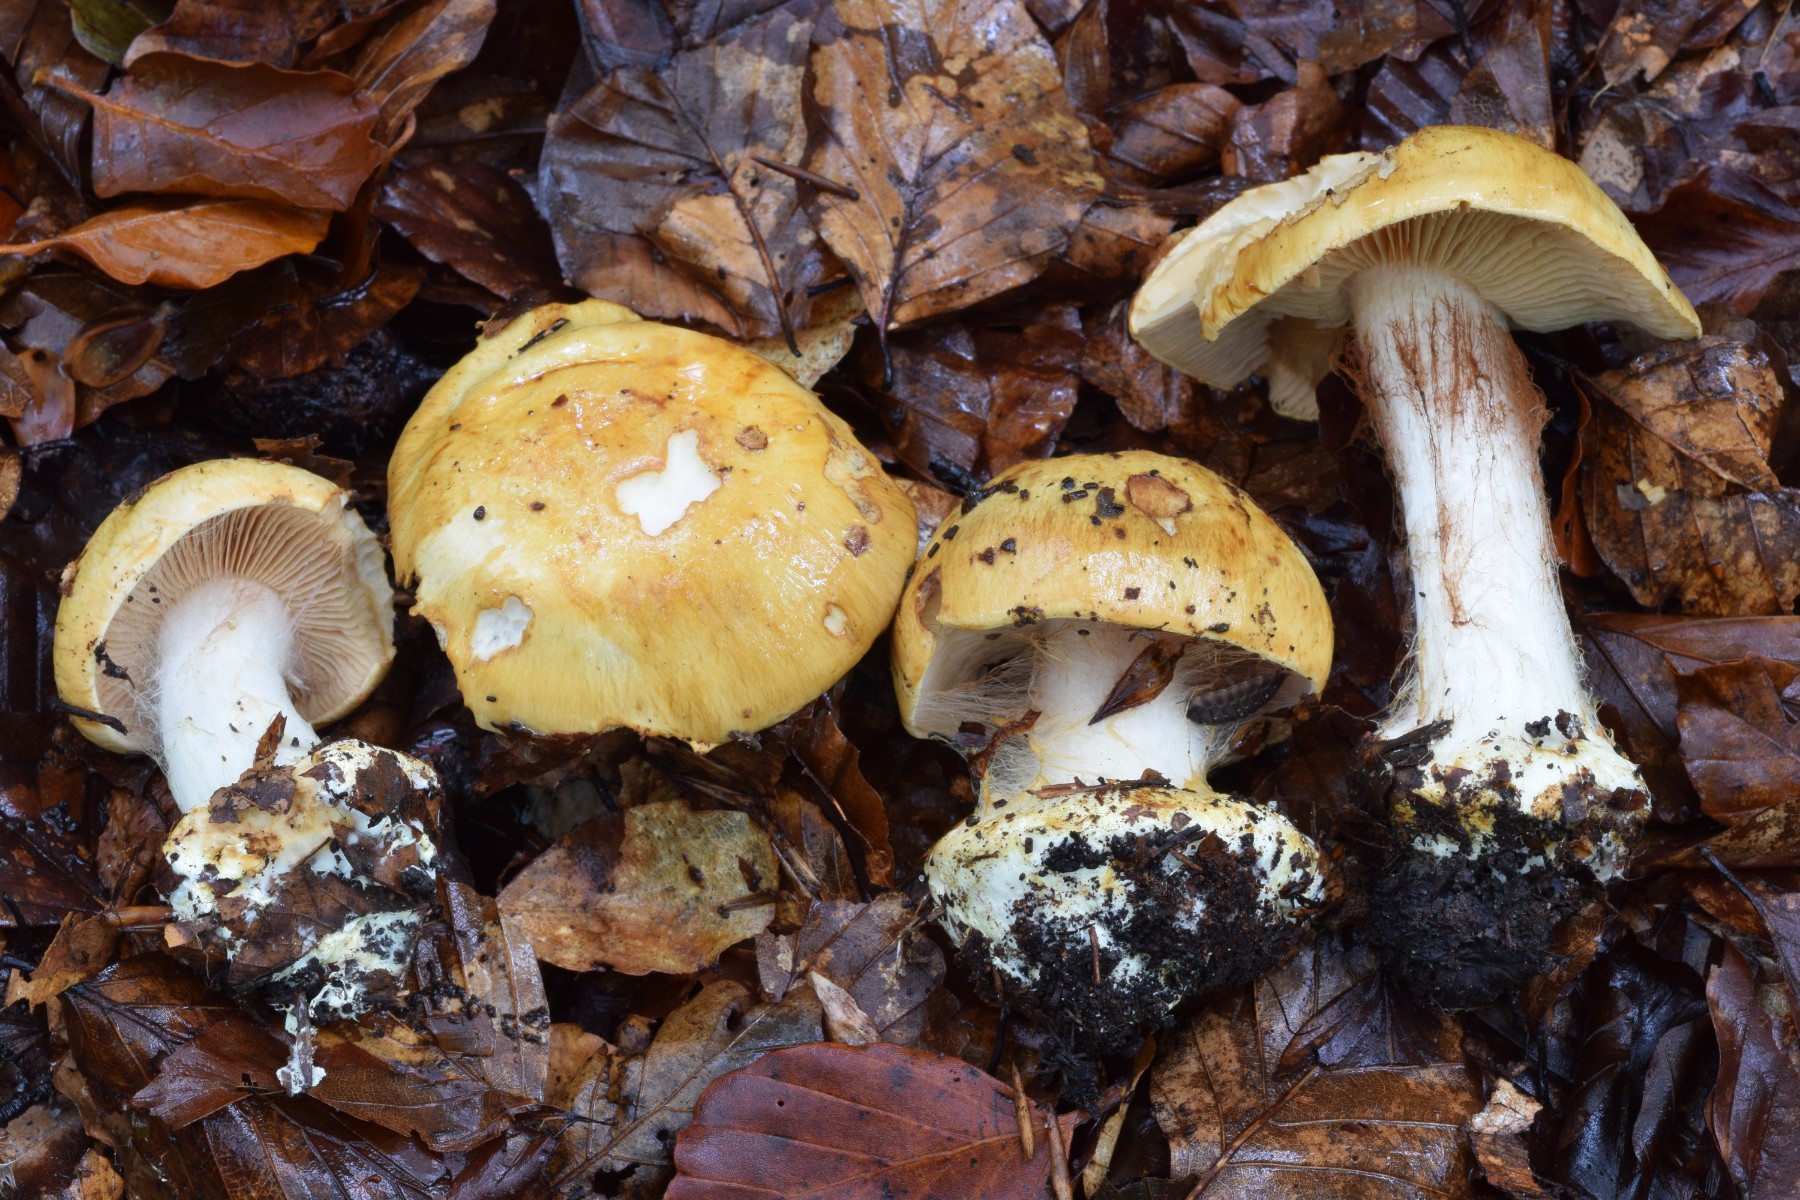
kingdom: Fungi
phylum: Basidiomycota
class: Agaricomycetes
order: Agaricales
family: Cortinariaceae
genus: Calonarius
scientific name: Calonarius langeorum
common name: Langes slørhat
